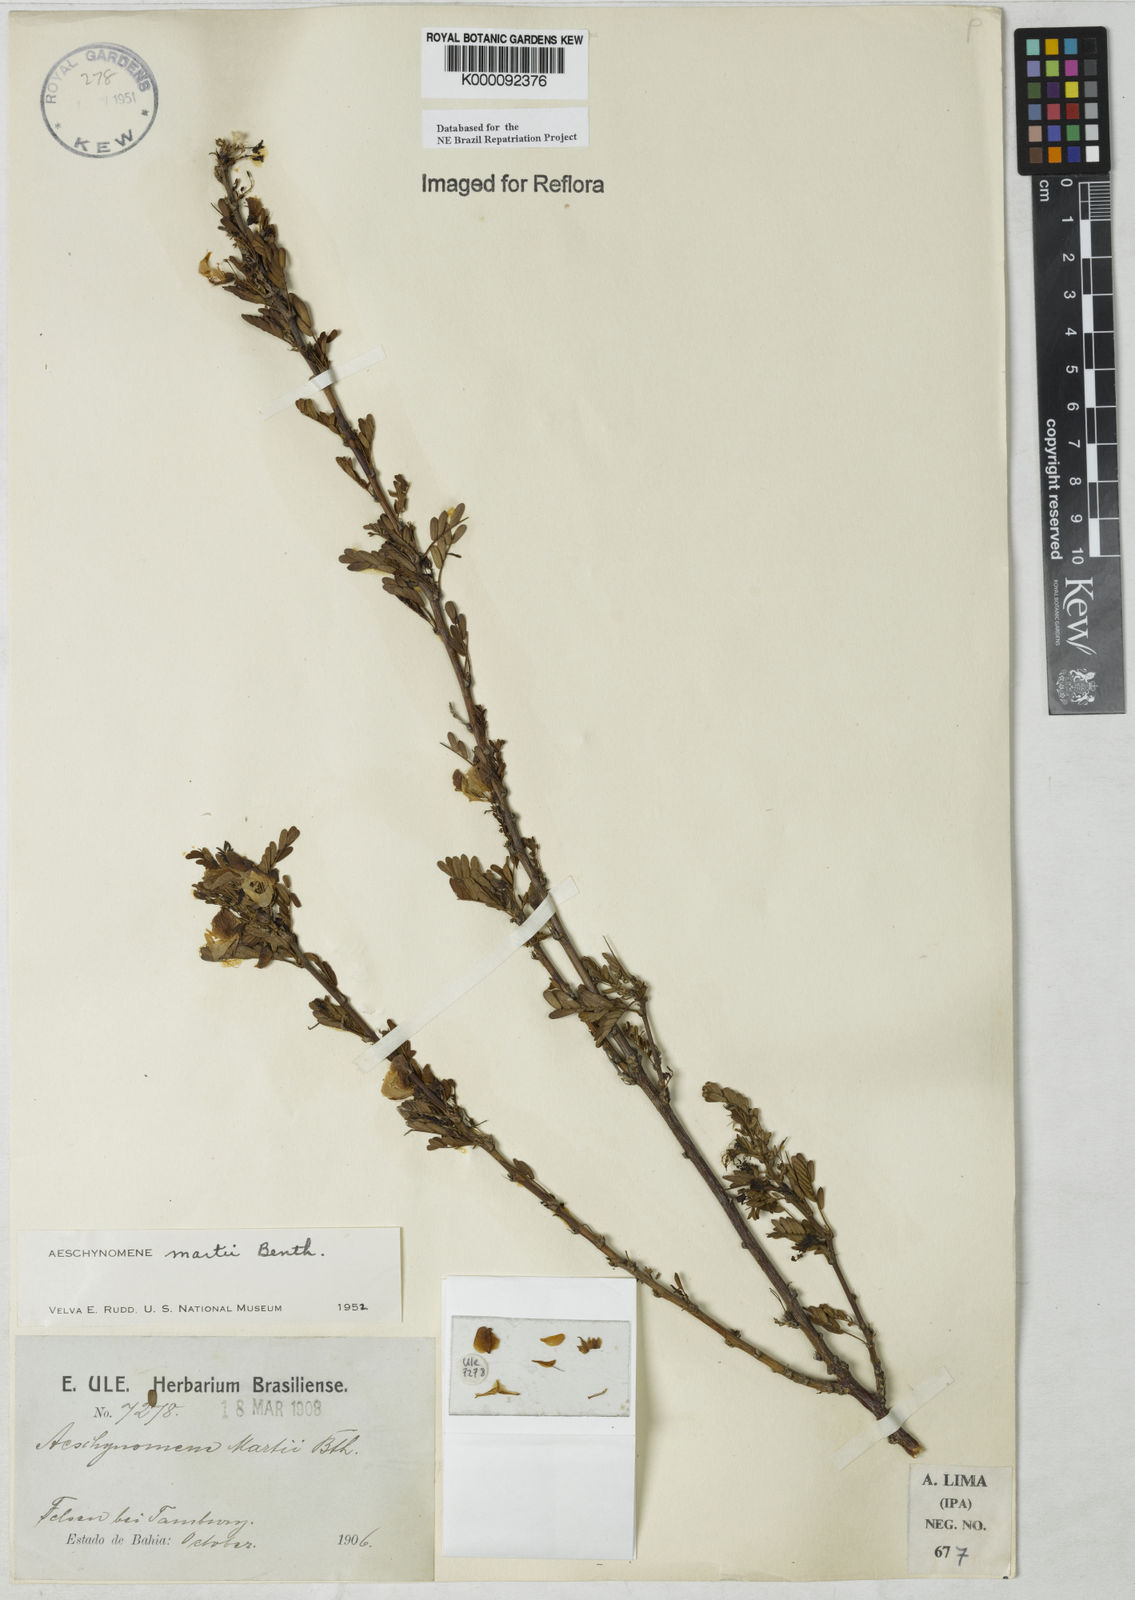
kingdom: Plantae
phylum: Tracheophyta
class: Magnoliopsida
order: Fabales
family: Fabaceae
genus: Ctenodon
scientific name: Ctenodon martii
